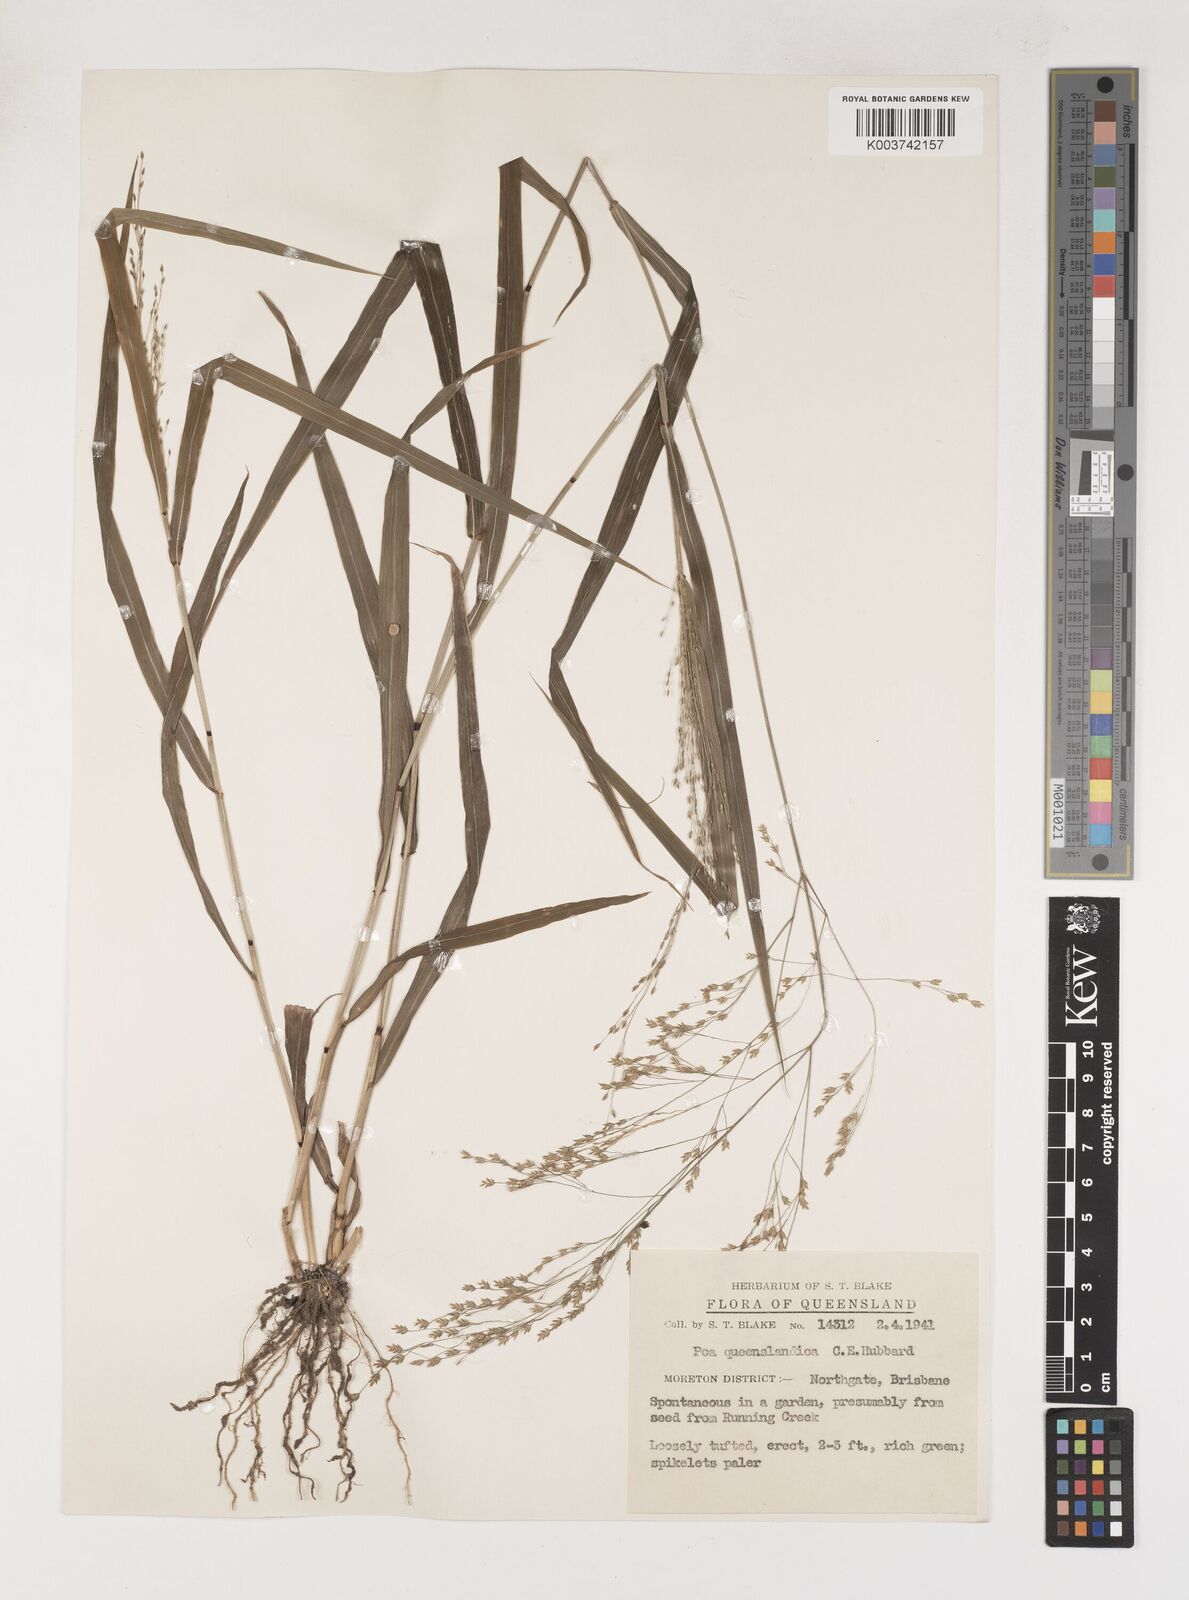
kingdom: Plantae
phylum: Tracheophyta
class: Liliopsida
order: Poales
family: Poaceae
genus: Sylvipoa
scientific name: Sylvipoa queenslandica
